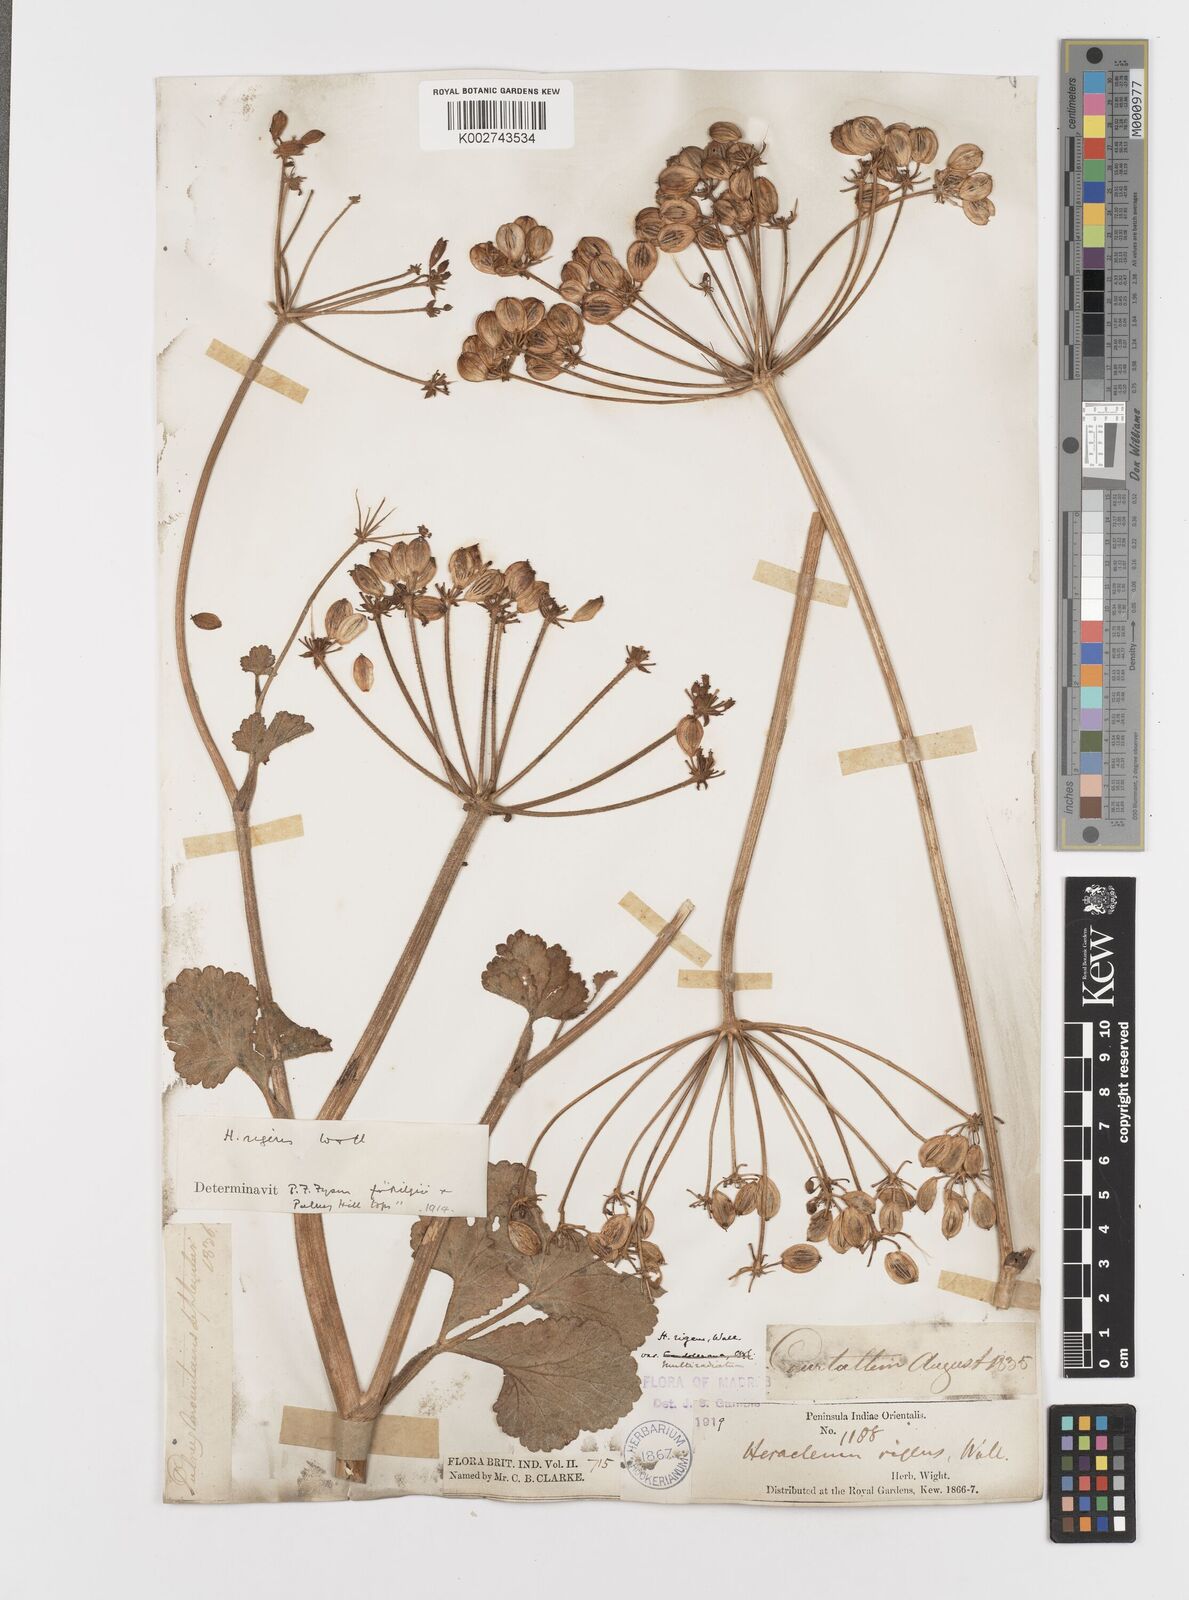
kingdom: Plantae
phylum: Tracheophyta
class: Magnoliopsida
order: Apiales
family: Apiaceae
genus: Tetrataenium
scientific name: Tetrataenium rigens
